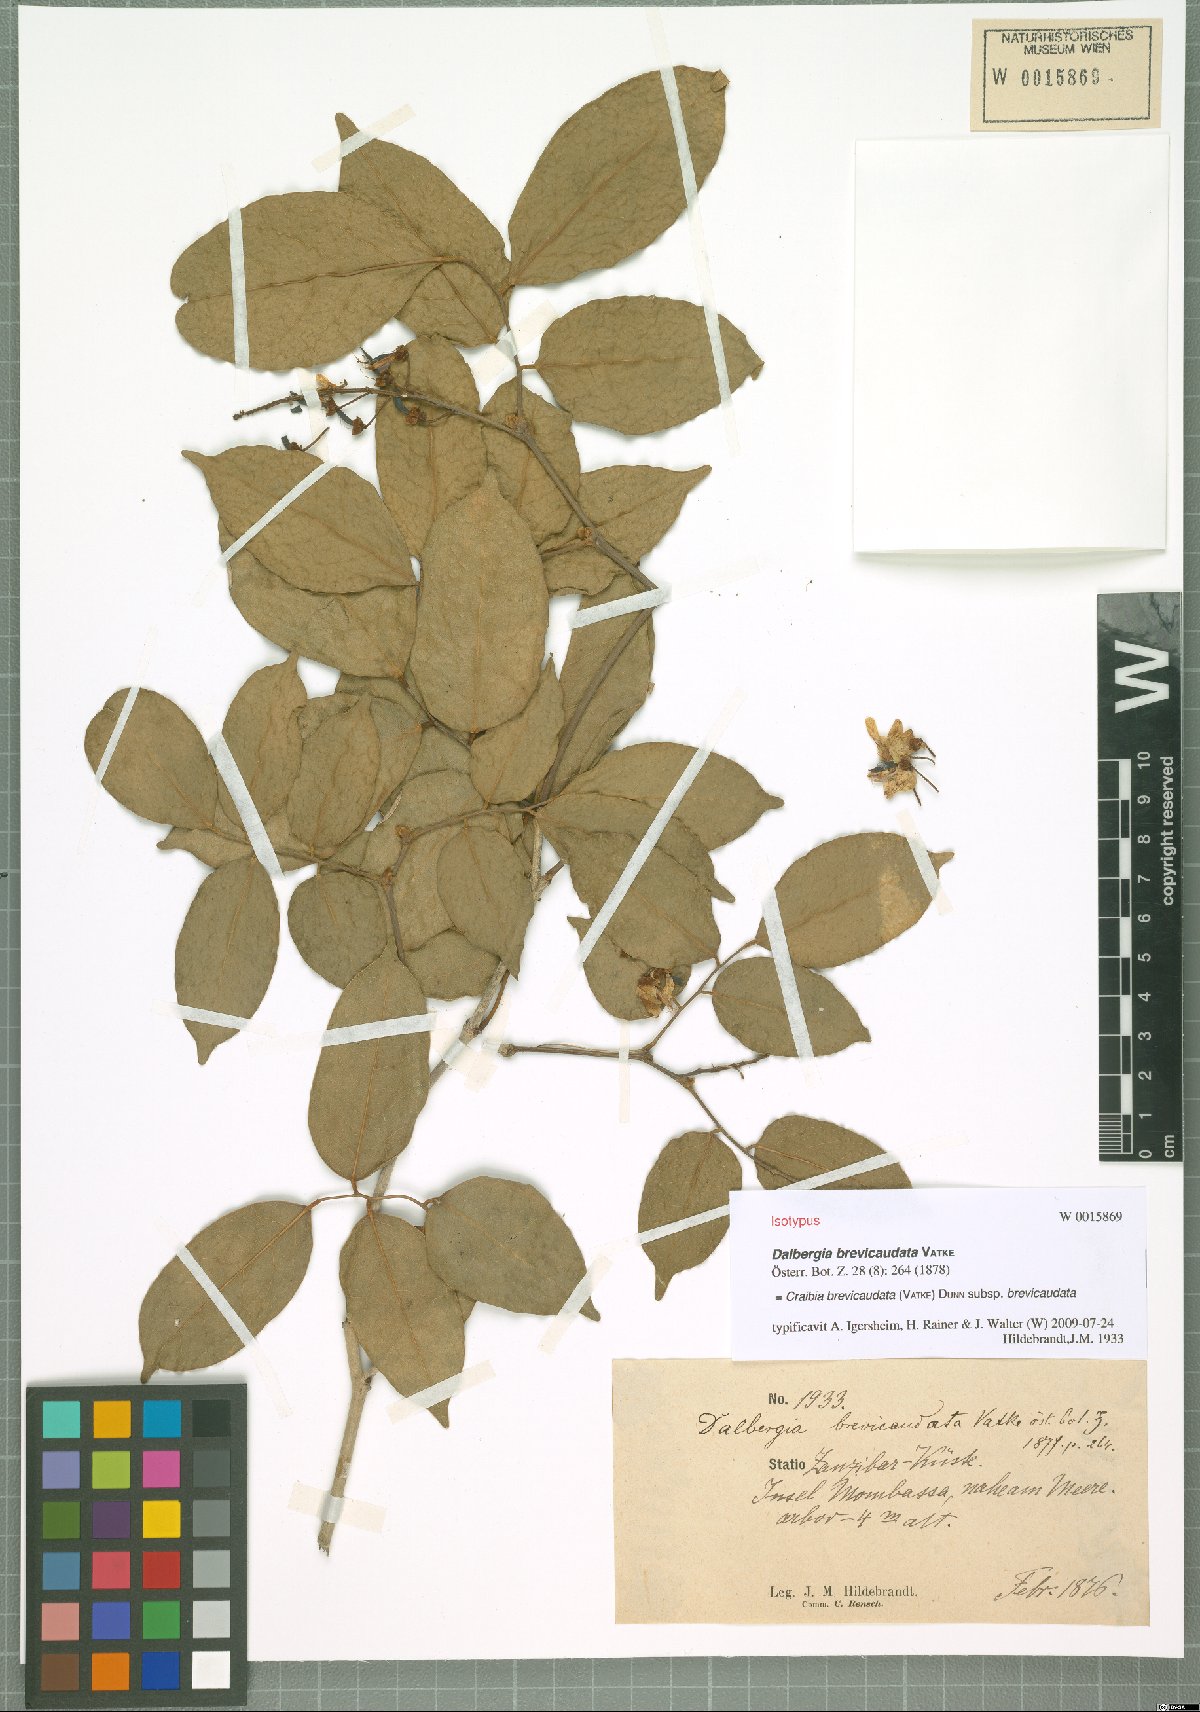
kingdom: Plantae
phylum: Tracheophyta
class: Magnoliopsida
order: Fabales
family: Fabaceae
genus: Craibia
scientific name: Craibia brevicaudata
